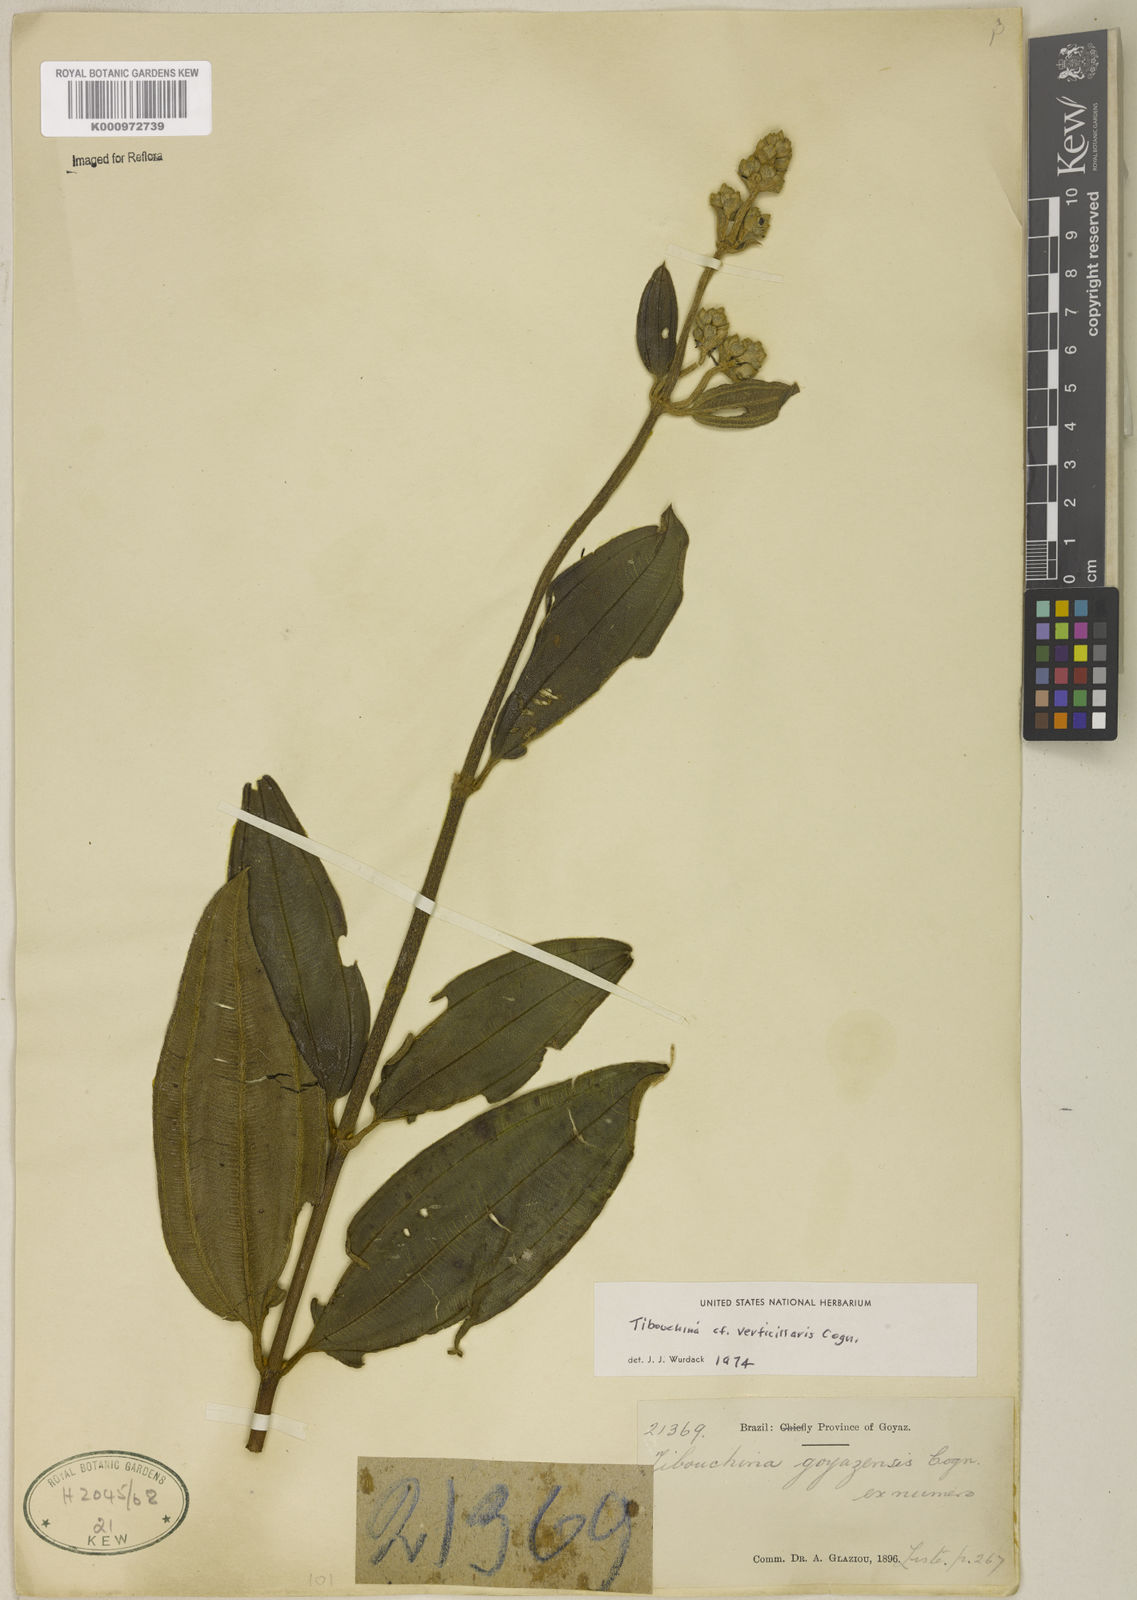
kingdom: Plantae
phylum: Tracheophyta
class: Magnoliopsida
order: Myrtales
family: Melastomataceae
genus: Tibouchina
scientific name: Tibouchina verticillaris
